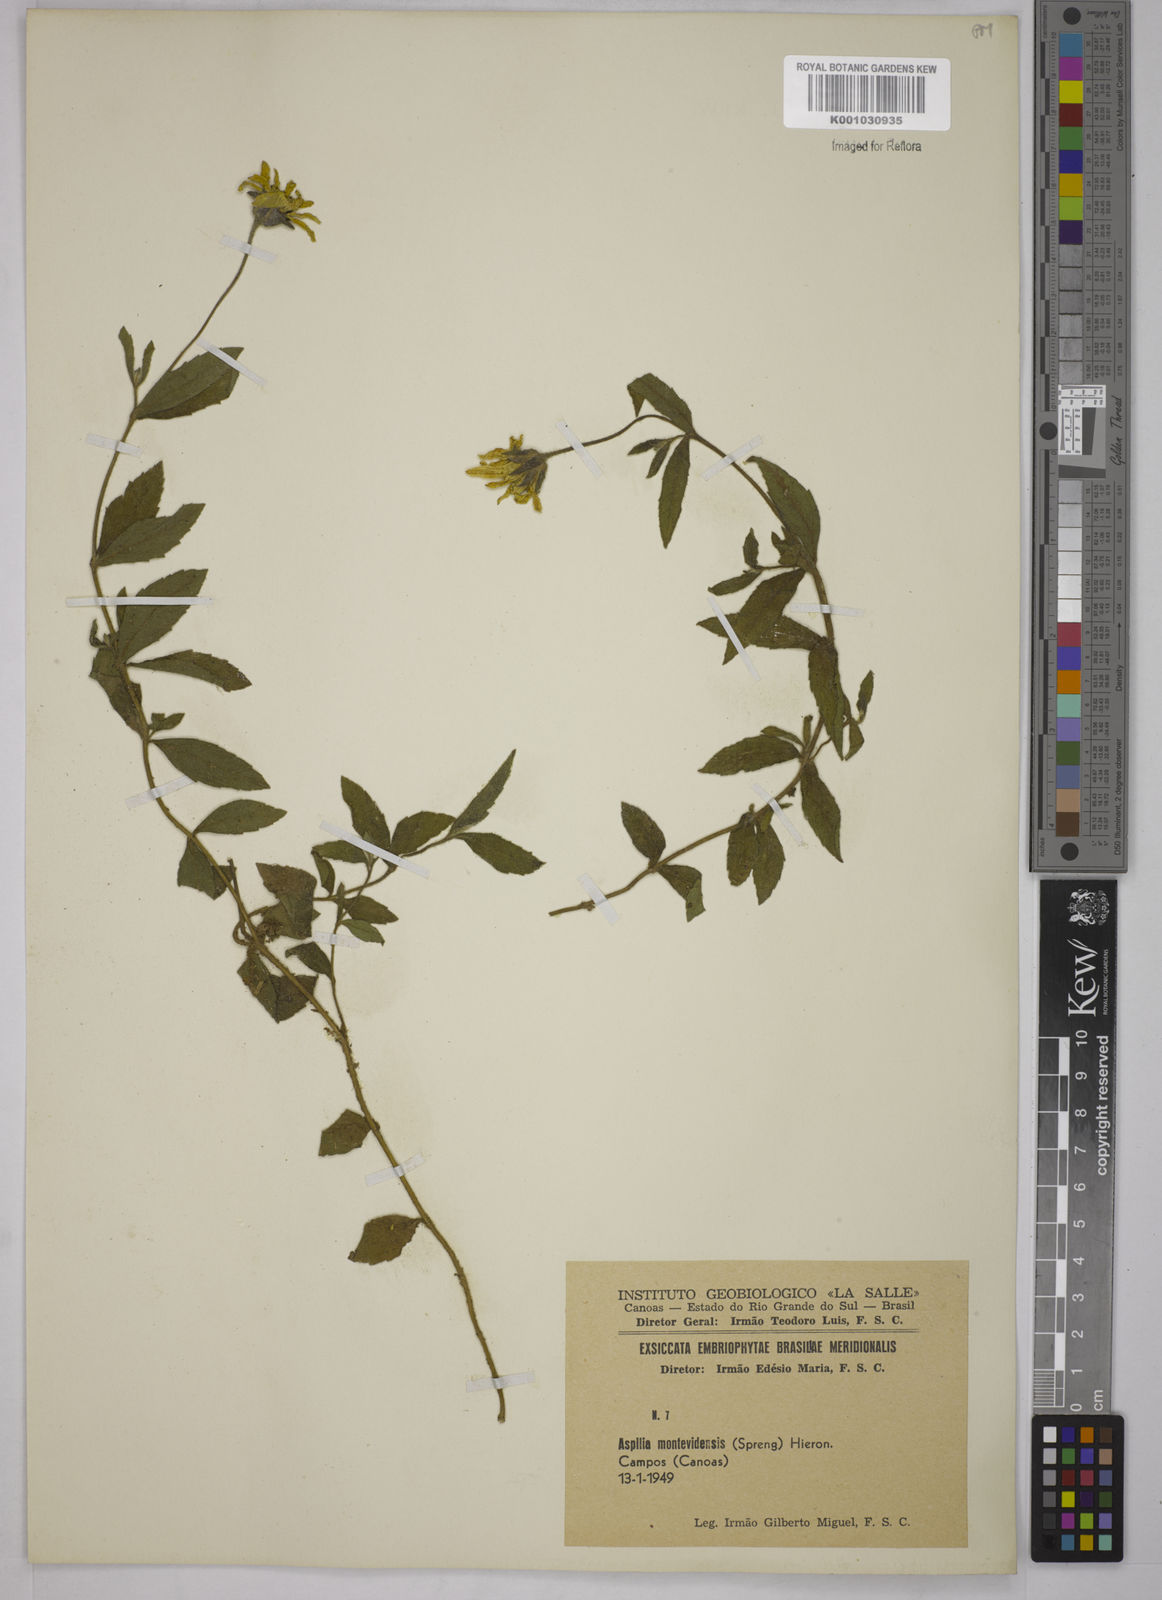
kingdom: Plantae
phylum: Tracheophyta
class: Magnoliopsida
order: Asterales
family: Asteraceae
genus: Wedelia
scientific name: Wedelia montevidensis
